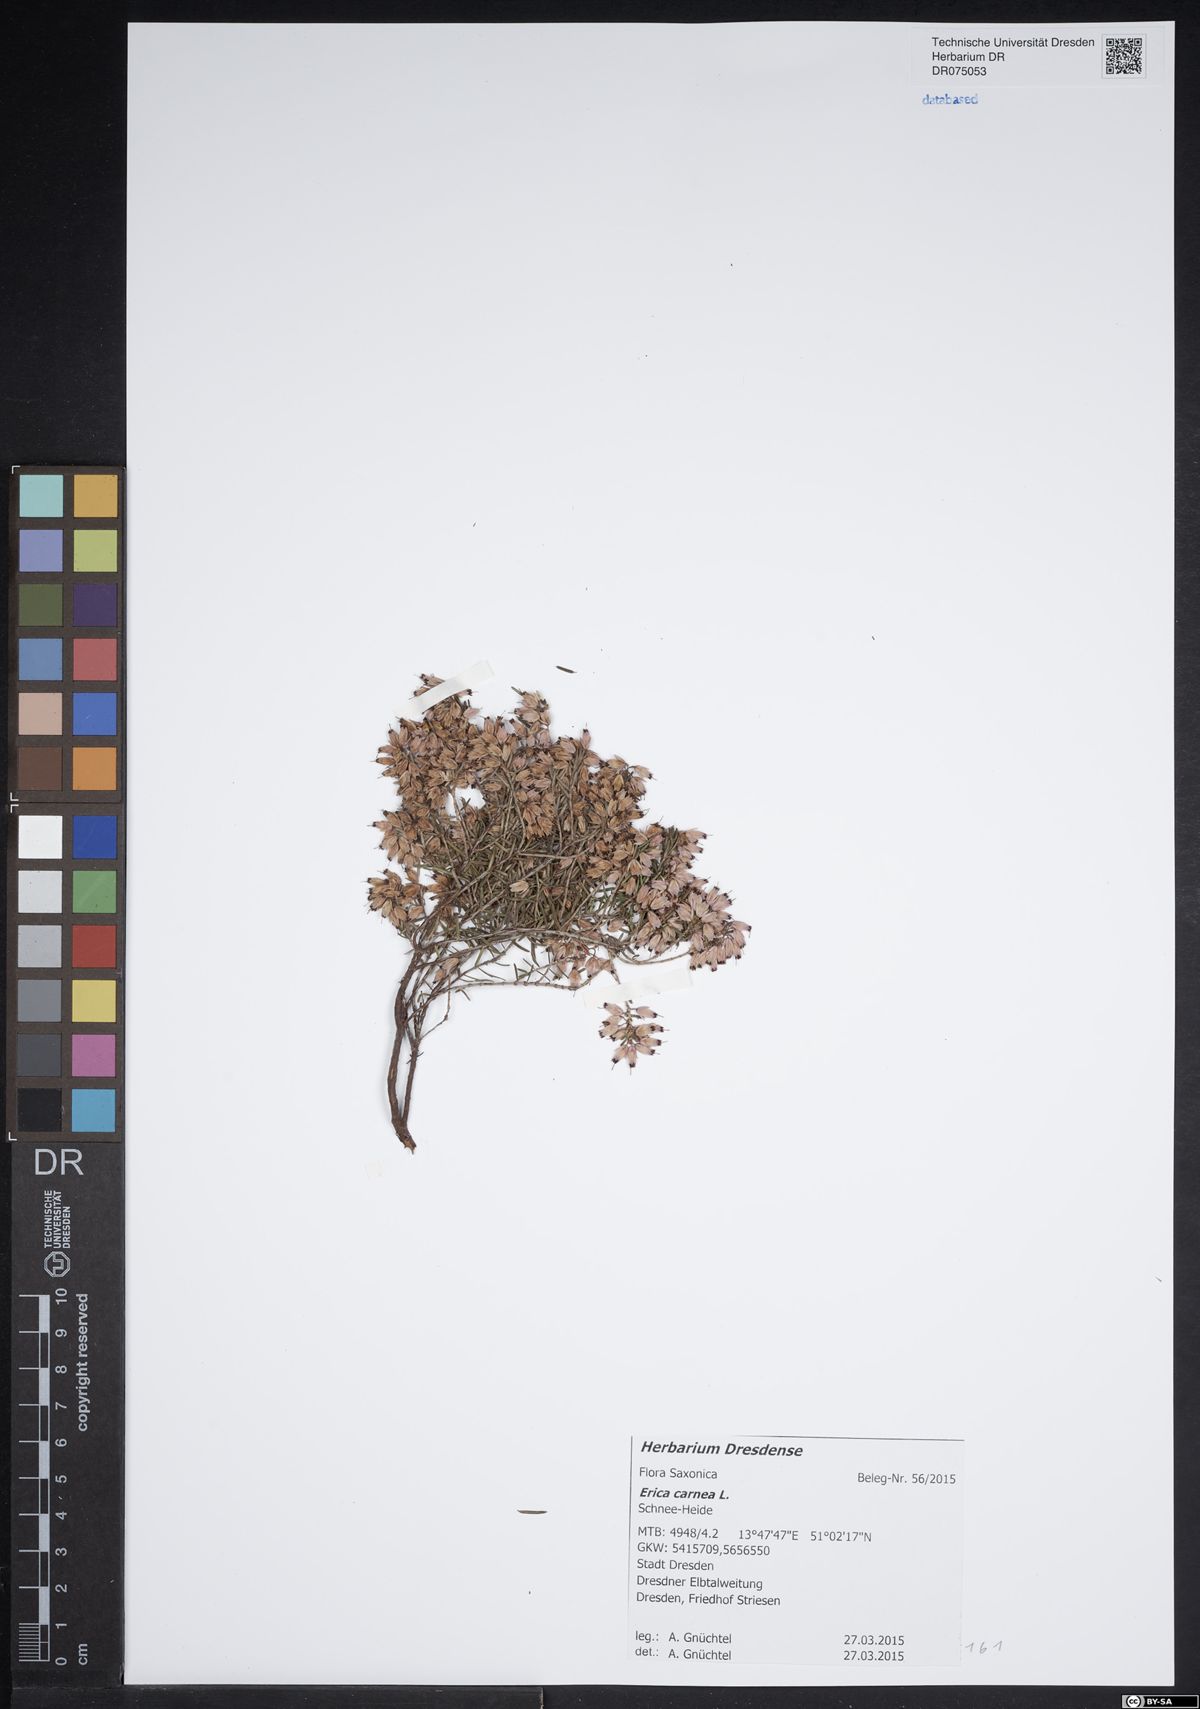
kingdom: Plantae
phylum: Tracheophyta
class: Magnoliopsida
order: Ericales
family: Ericaceae
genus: Erica
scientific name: Erica carnea
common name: Winter heath
